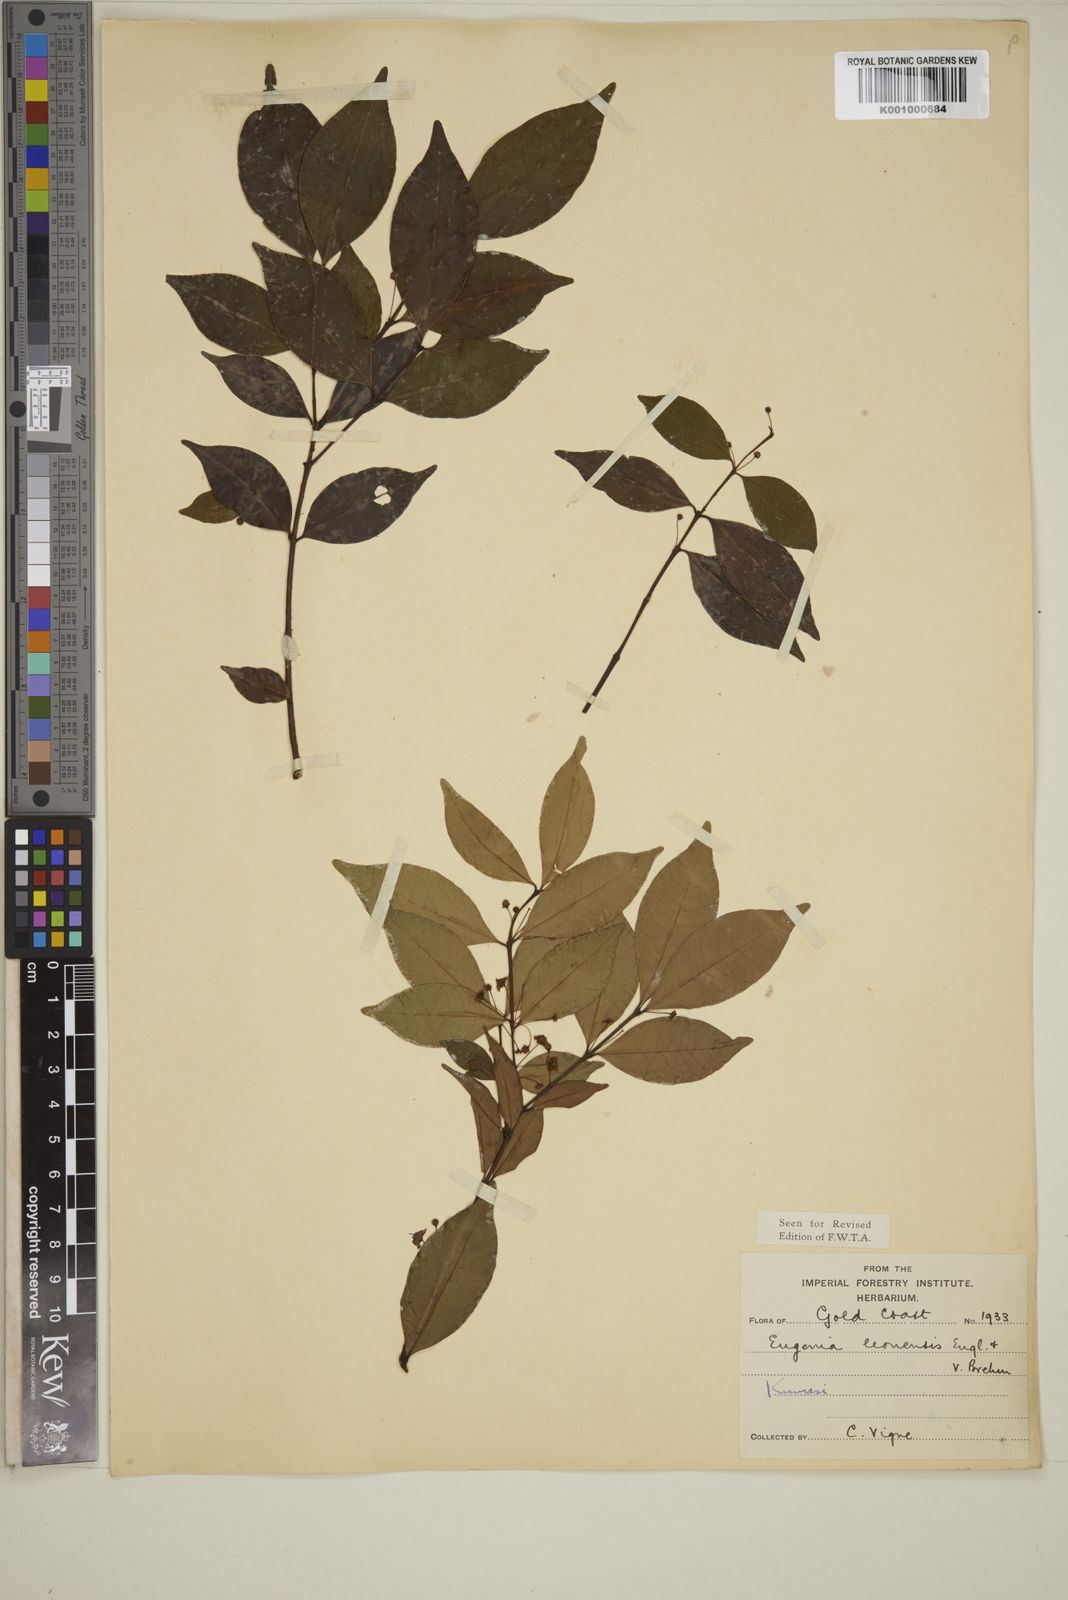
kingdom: Plantae
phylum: Tracheophyta
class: Magnoliopsida
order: Myrtales
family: Myrtaceae
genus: Eugenia
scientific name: Eugenia leonensis
